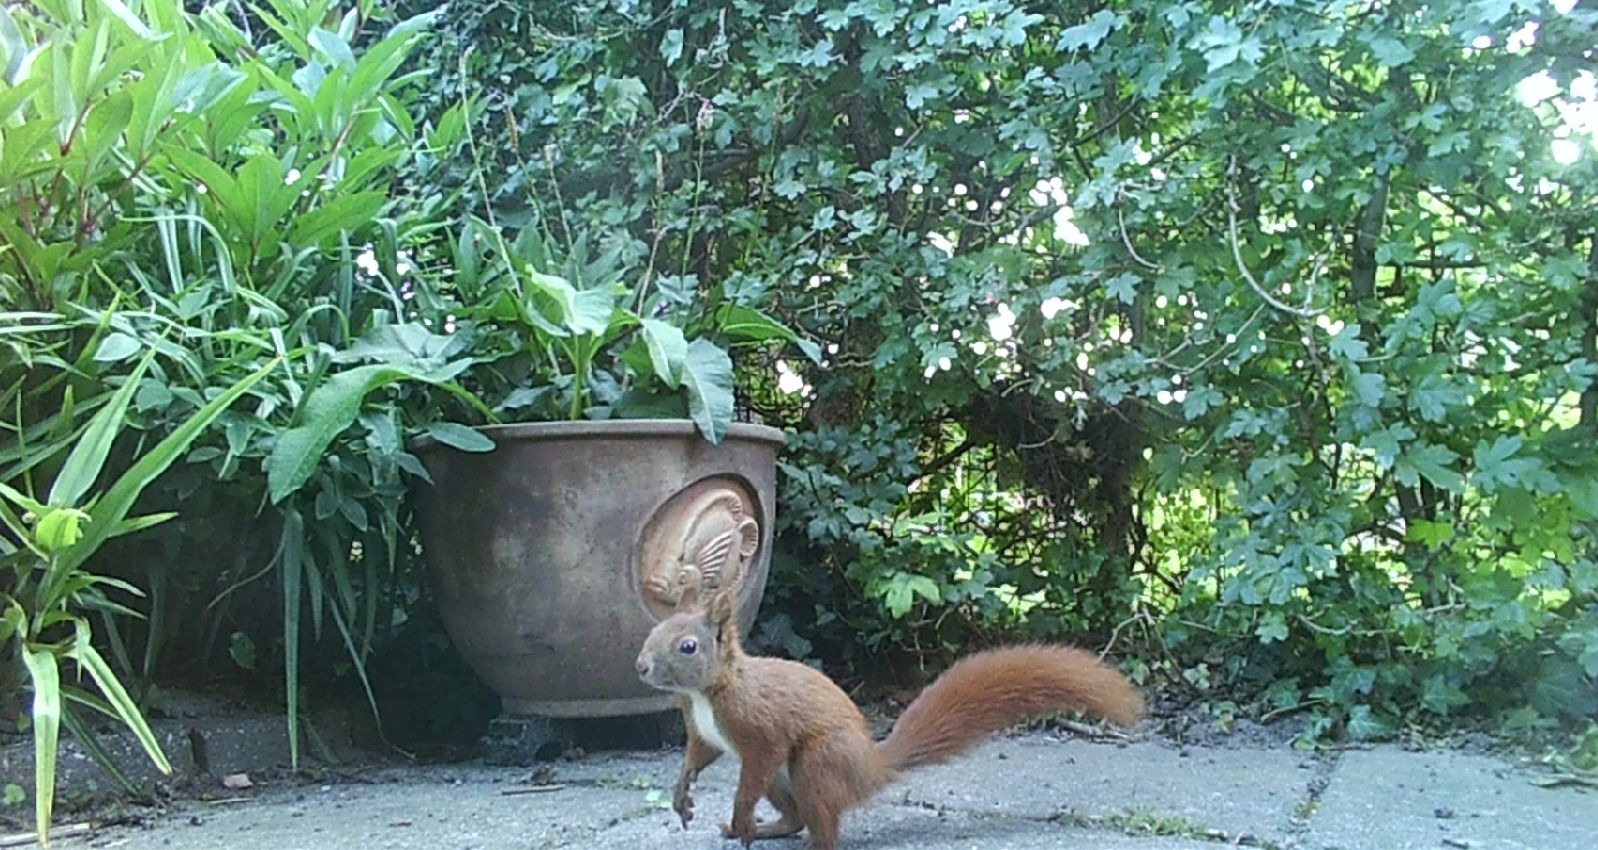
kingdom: Animalia
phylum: Chordata
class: Mammalia
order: Rodentia
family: Sciuridae
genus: Sciurus
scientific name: Sciurus vulgaris
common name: Egern
